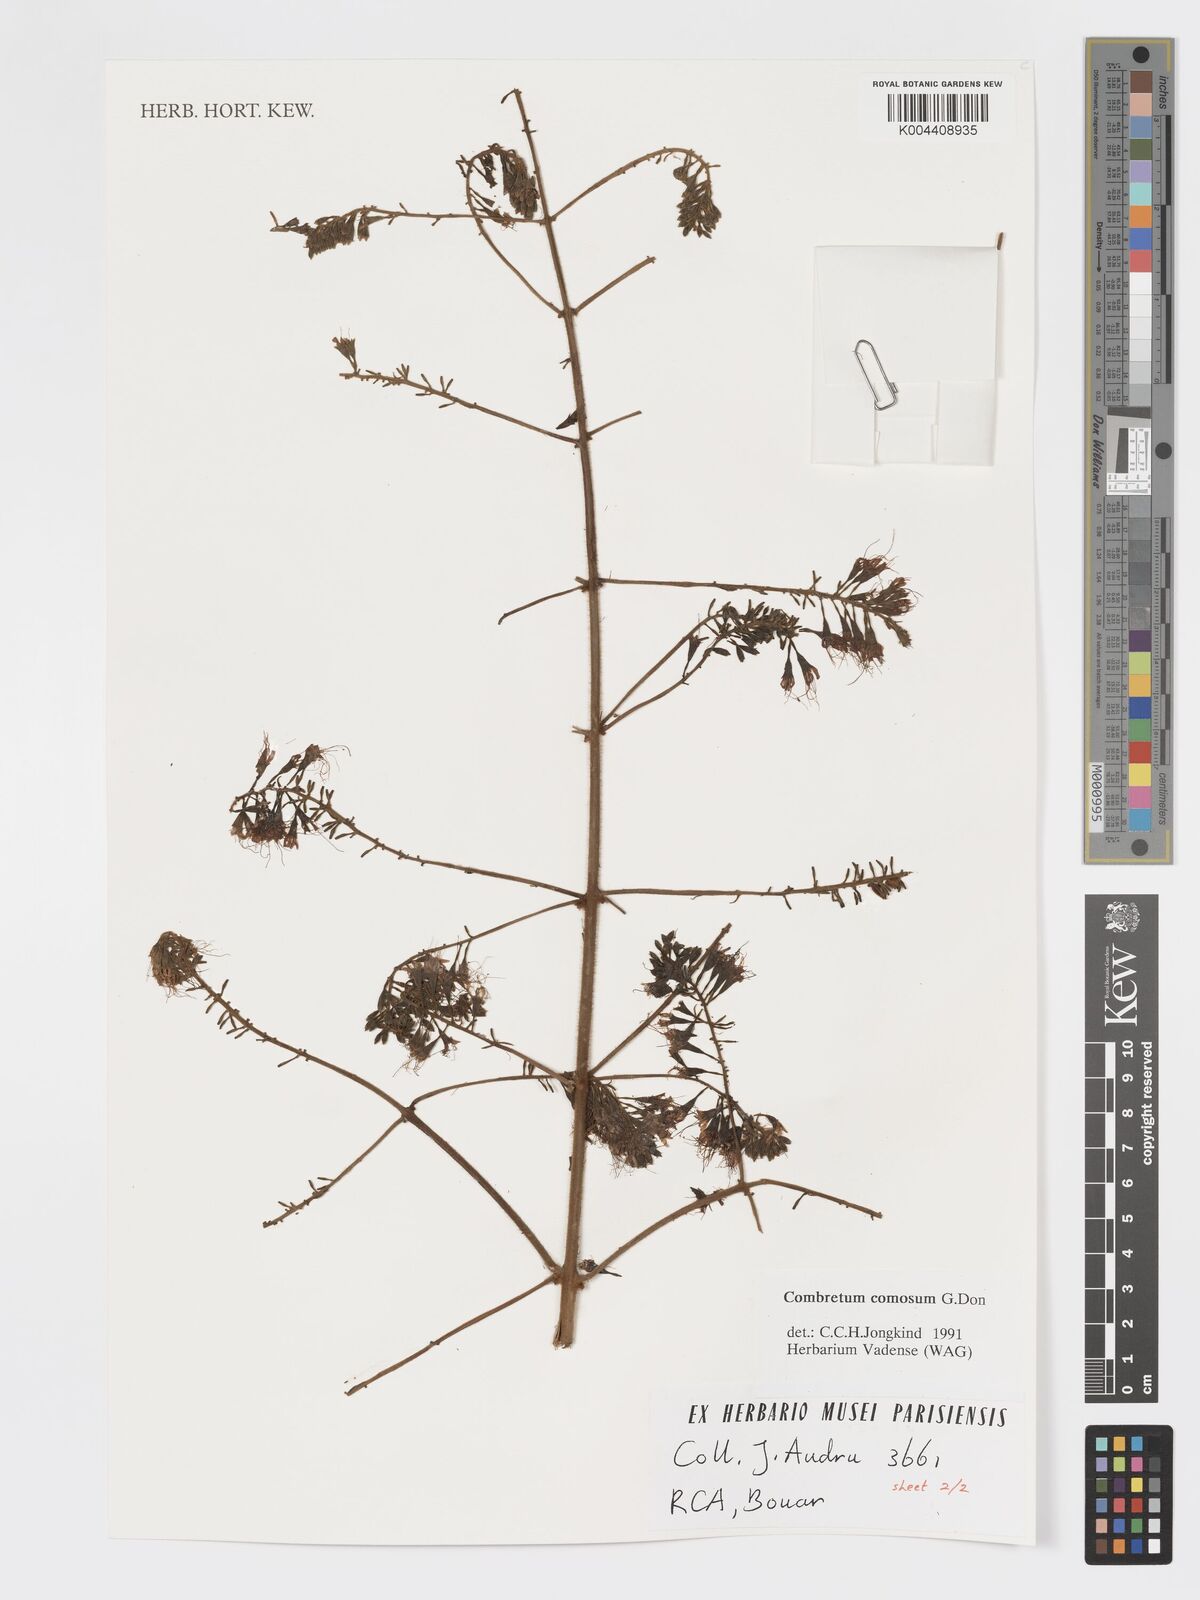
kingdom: Plantae
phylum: Tracheophyta
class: Magnoliopsida
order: Myrtales
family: Combretaceae
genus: Combretum
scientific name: Combretum comosum
